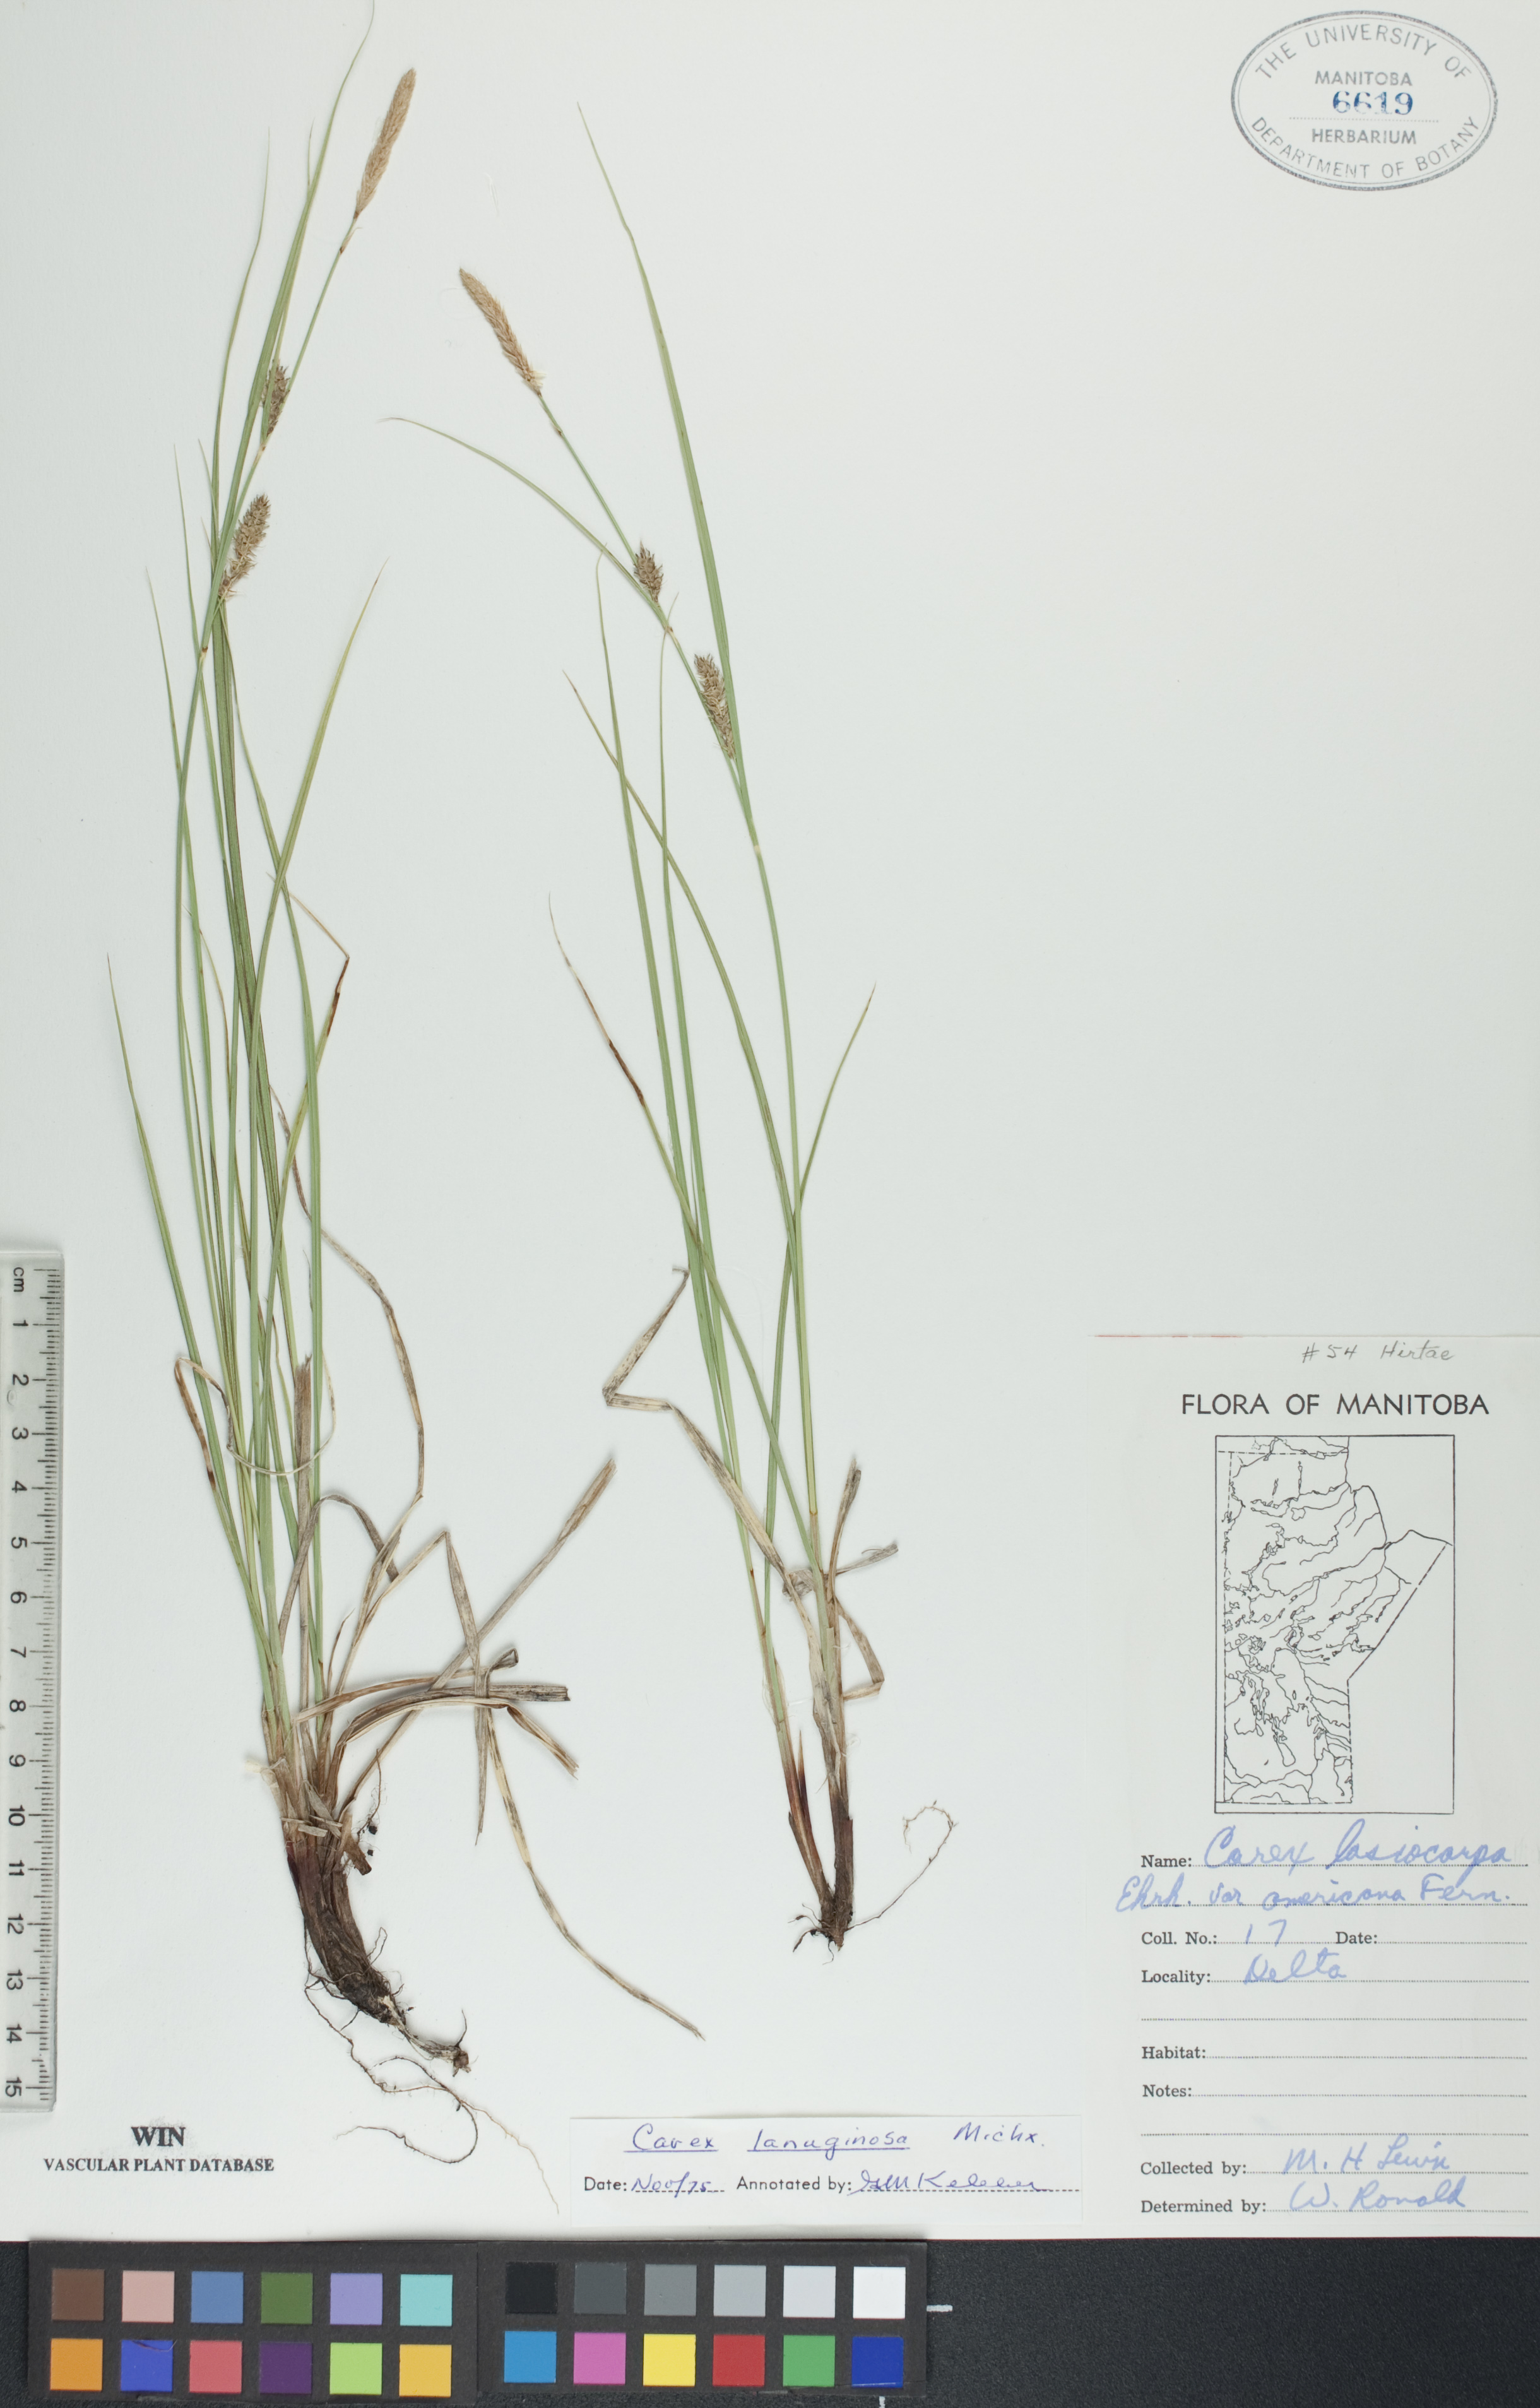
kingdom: Plantae
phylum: Tracheophyta
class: Liliopsida
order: Poales
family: Cyperaceae
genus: Carex
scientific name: Carex lasiocarpa
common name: Slender sedge
